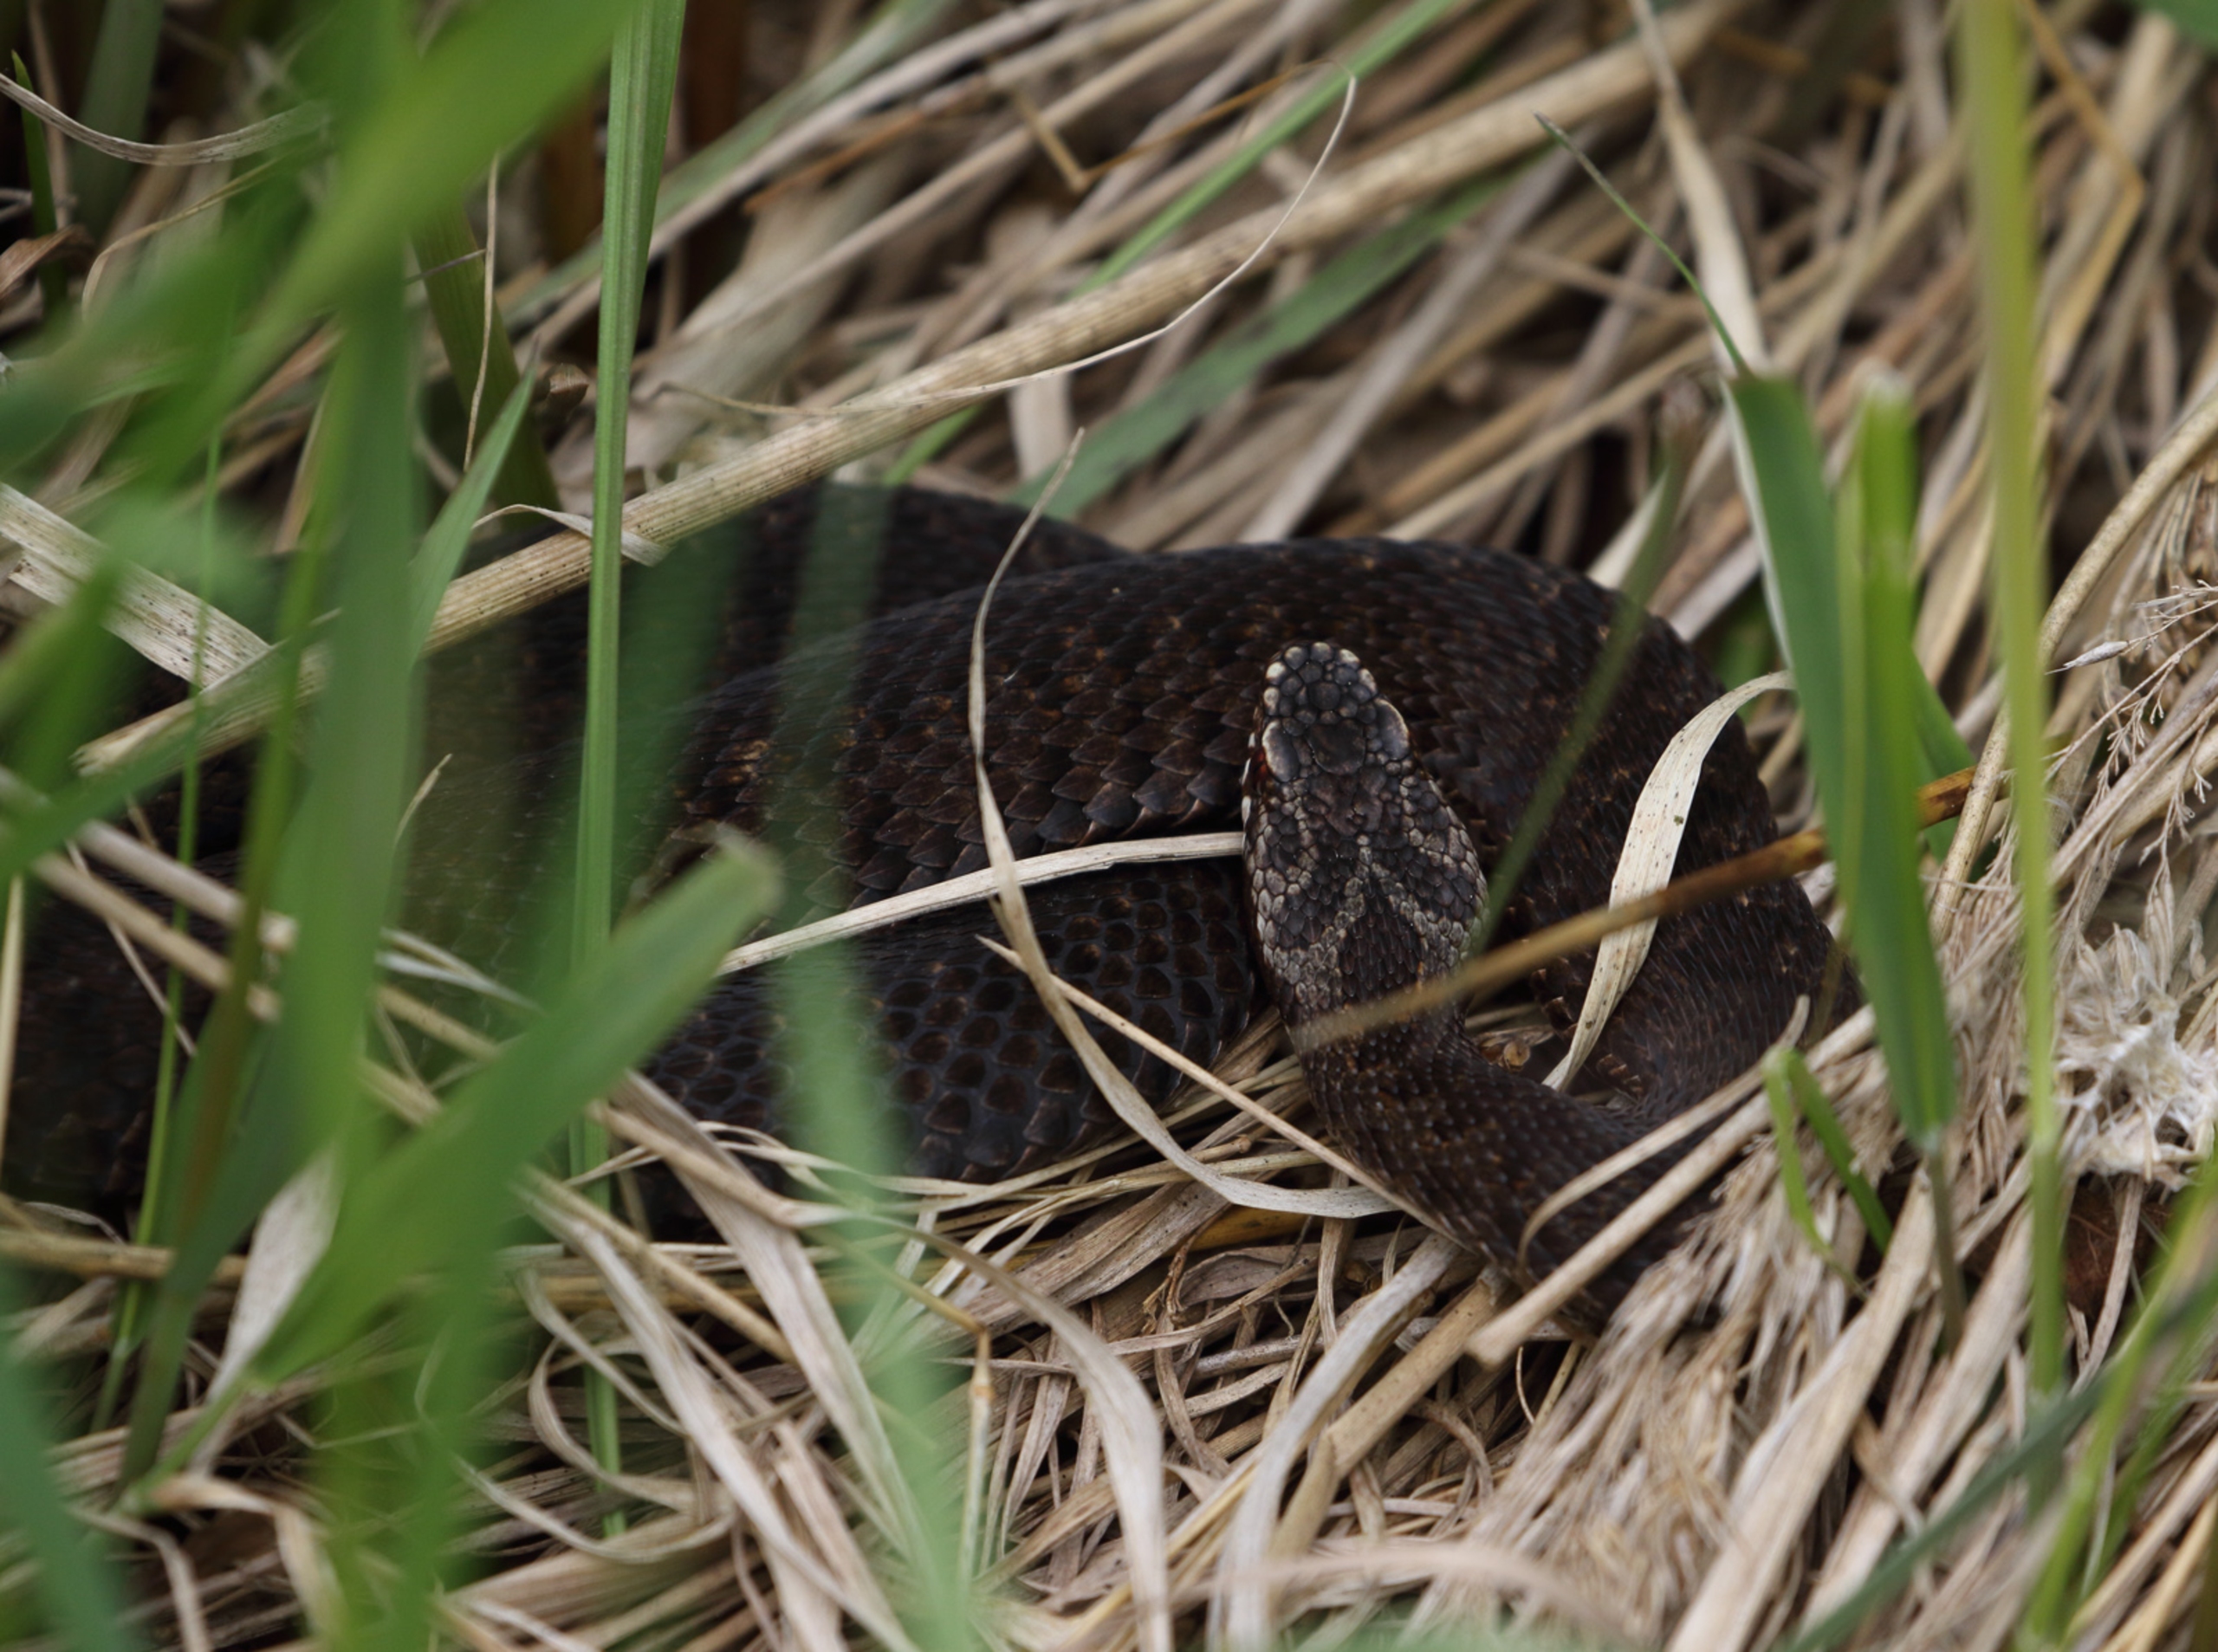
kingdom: Animalia
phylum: Chordata
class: Squamata
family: Viperidae
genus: Vipera
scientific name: Vipera berus
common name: Hugorm
